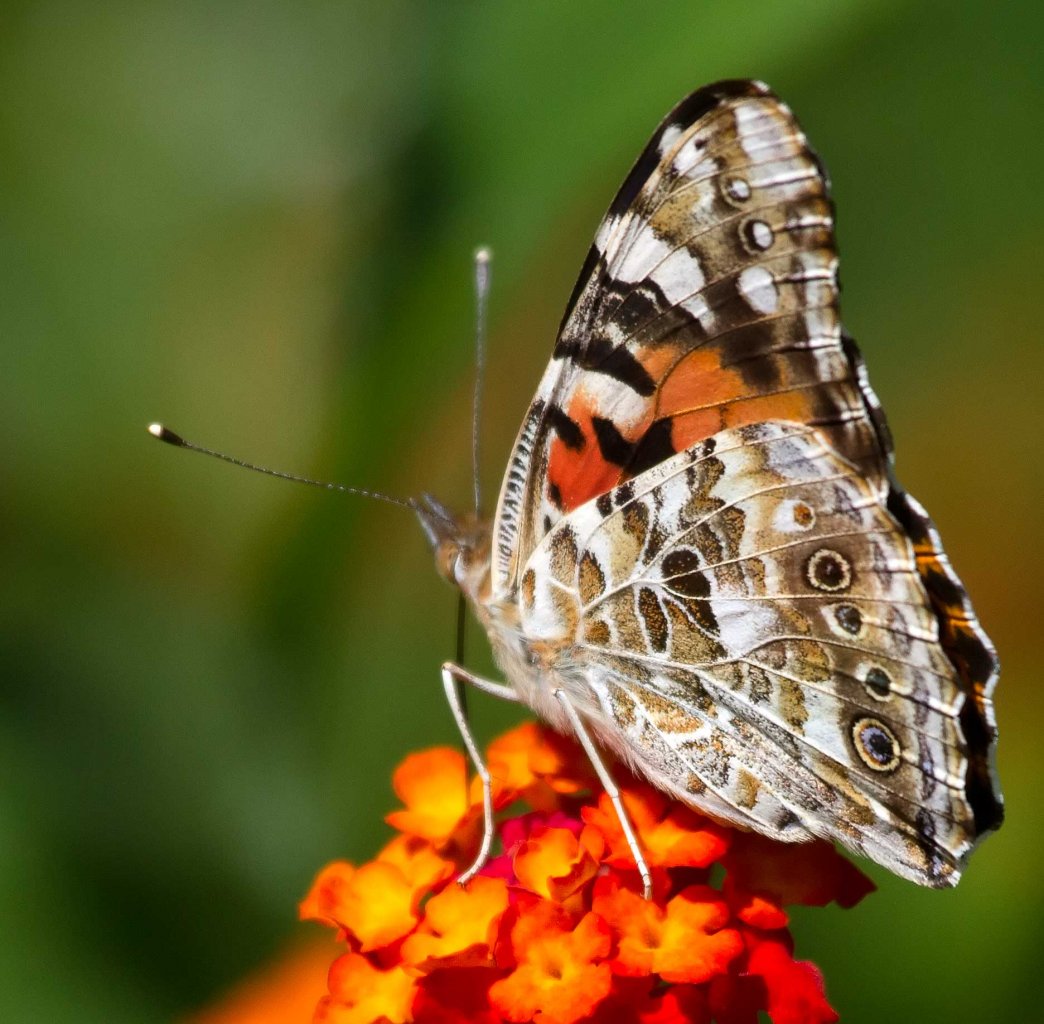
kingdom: Animalia
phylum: Arthropoda
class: Insecta
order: Lepidoptera
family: Nymphalidae
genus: Vanessa
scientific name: Vanessa cardui
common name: Painted Lady
